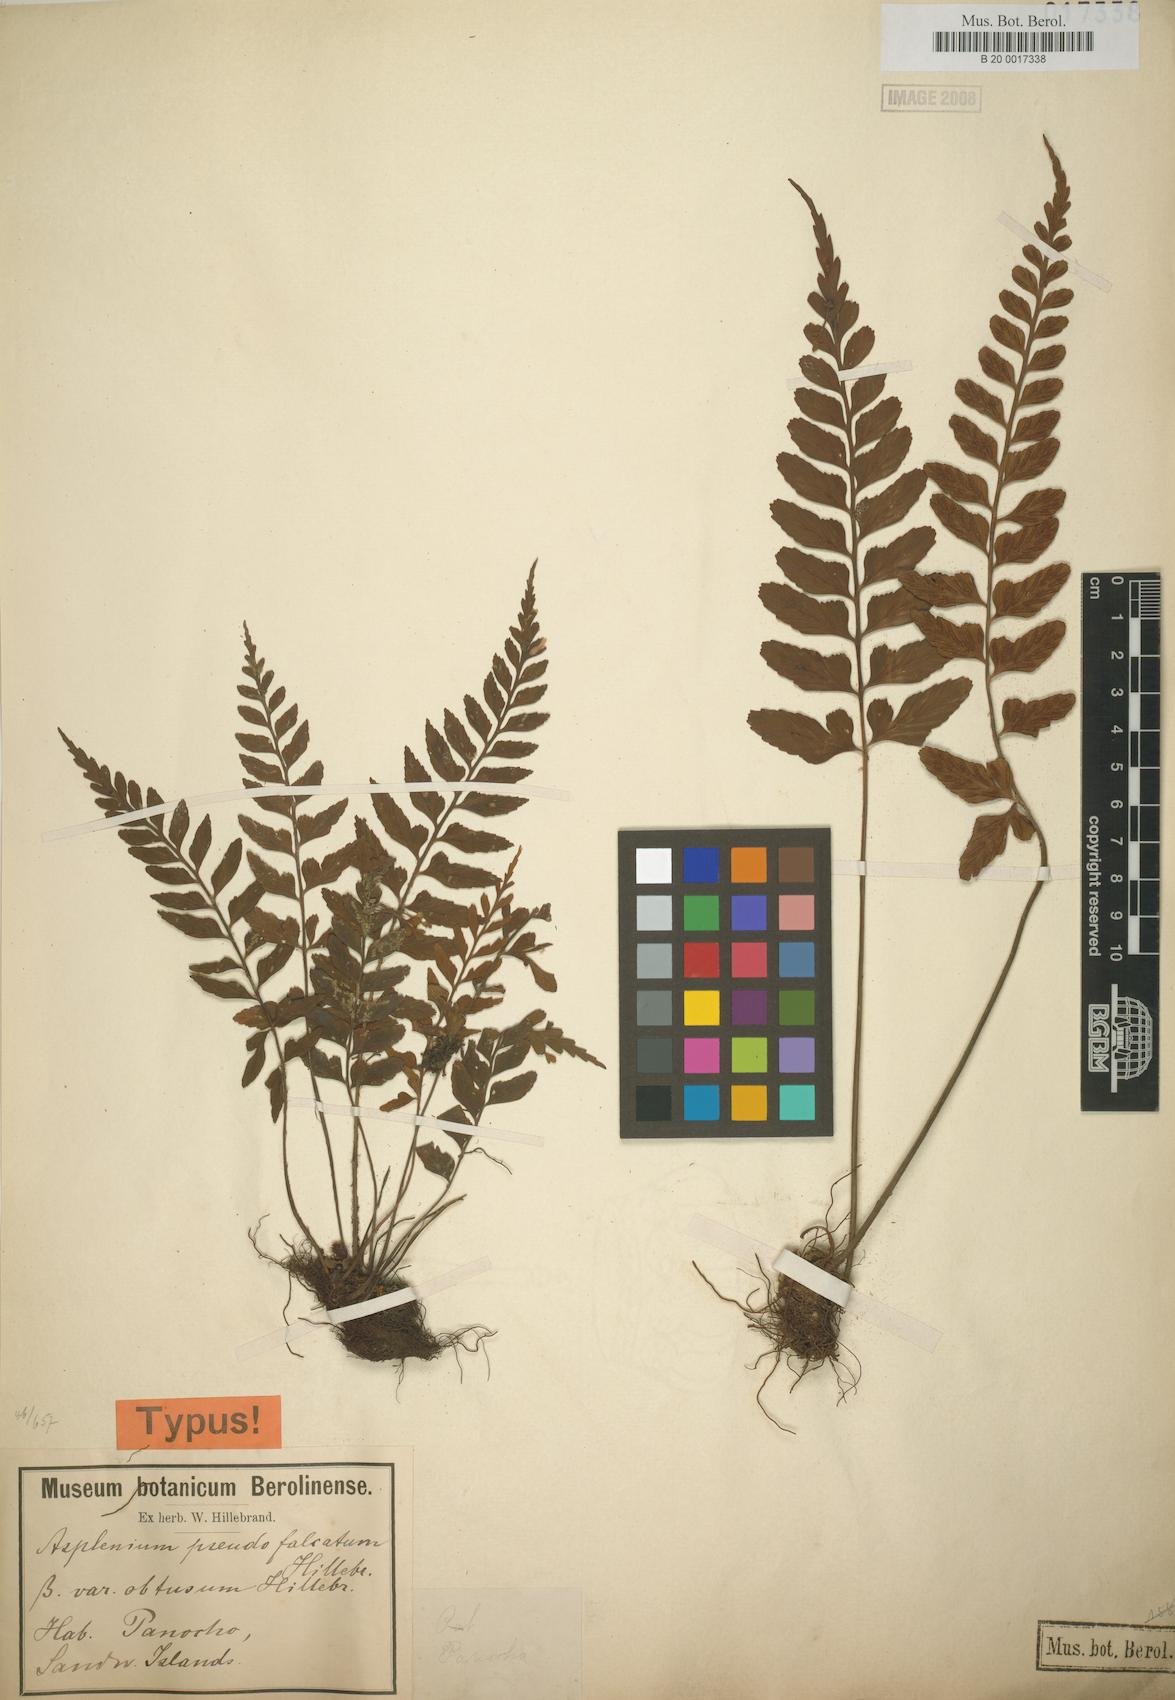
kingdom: Plantae
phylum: Tracheophyta
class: Polypodiopsida
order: Polypodiales
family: Aspleniaceae
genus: Asplenium
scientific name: Asplenium lobulatum
